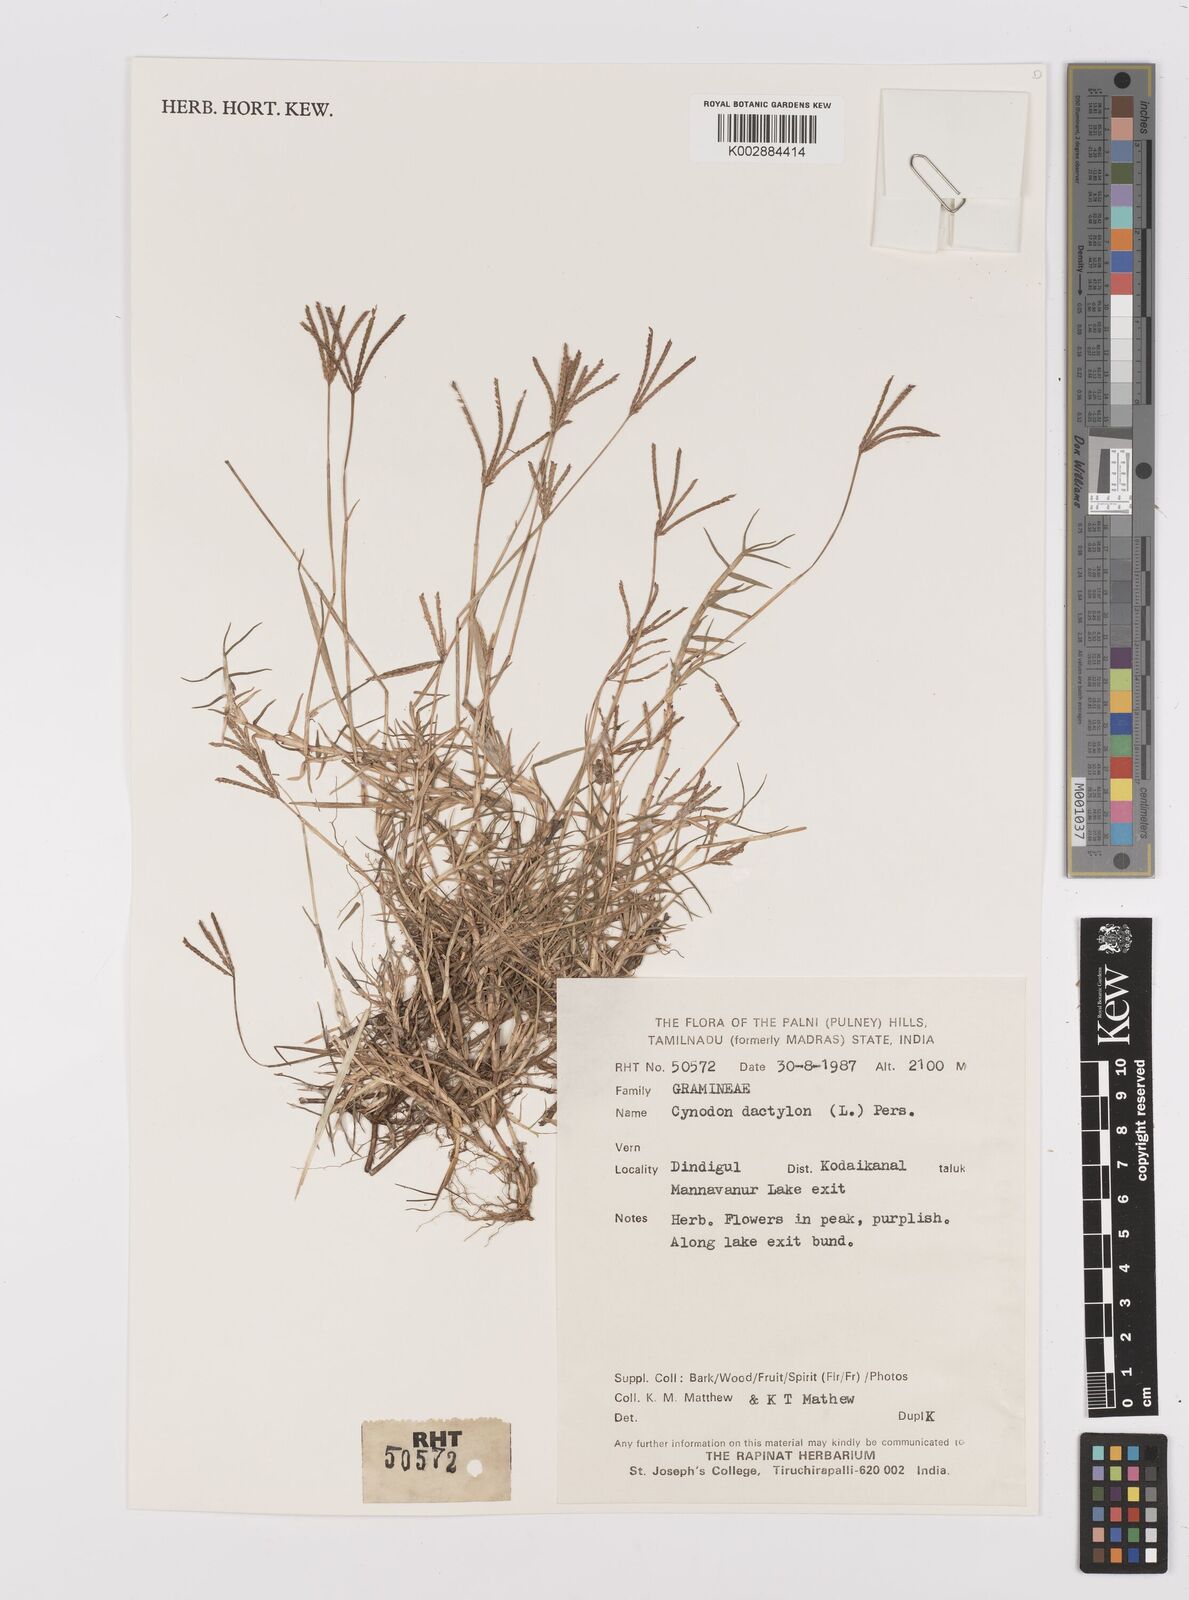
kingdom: Plantae
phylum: Tracheophyta
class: Liliopsida
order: Poales
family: Poaceae
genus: Cynodon
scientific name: Cynodon dactylon
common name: Bermuda grass
